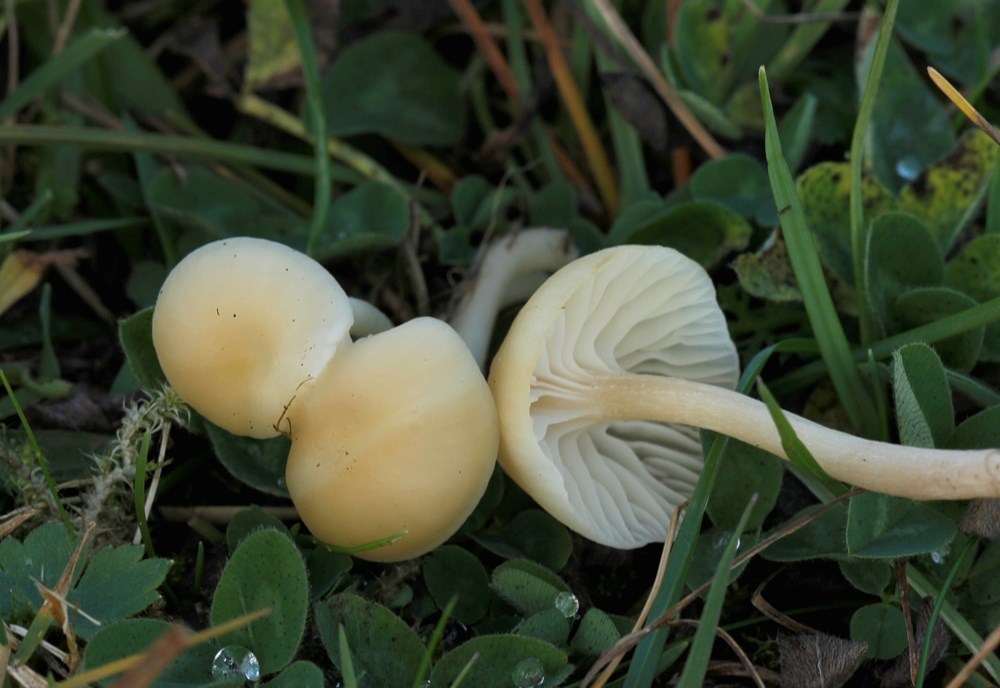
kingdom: Fungi
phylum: Basidiomycota
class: Agaricomycetes
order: Agaricales
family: Hygrophoraceae
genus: Cuphophyllus
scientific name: Cuphophyllus russocoriaceus
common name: ruslæder-vokshat
